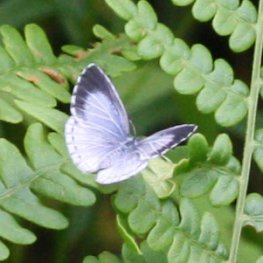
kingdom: Animalia
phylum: Arthropoda
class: Insecta
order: Lepidoptera
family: Lycaenidae
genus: Cyaniris
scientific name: Cyaniris neglecta
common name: Summer Azure
